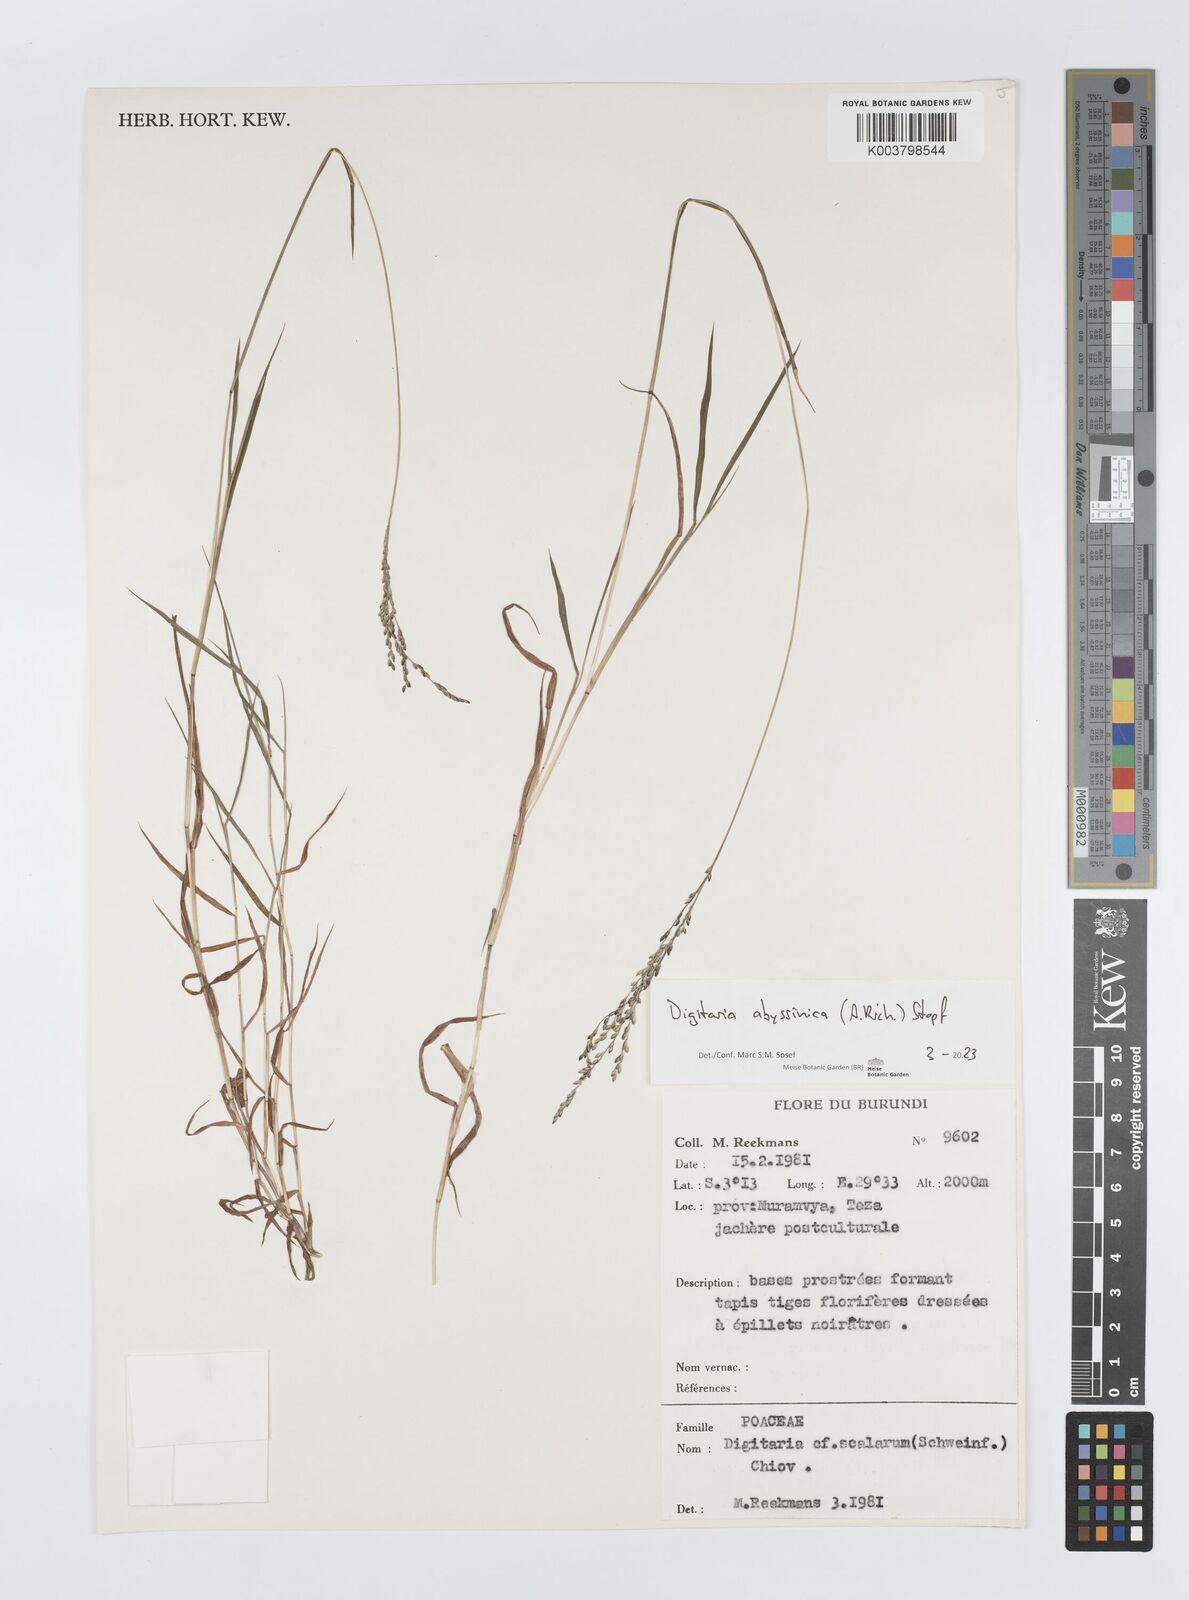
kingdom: Plantae
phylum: Tracheophyta
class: Liliopsida
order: Poales
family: Poaceae
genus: Digitaria
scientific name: Digitaria abyssinica
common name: African couchgrass
